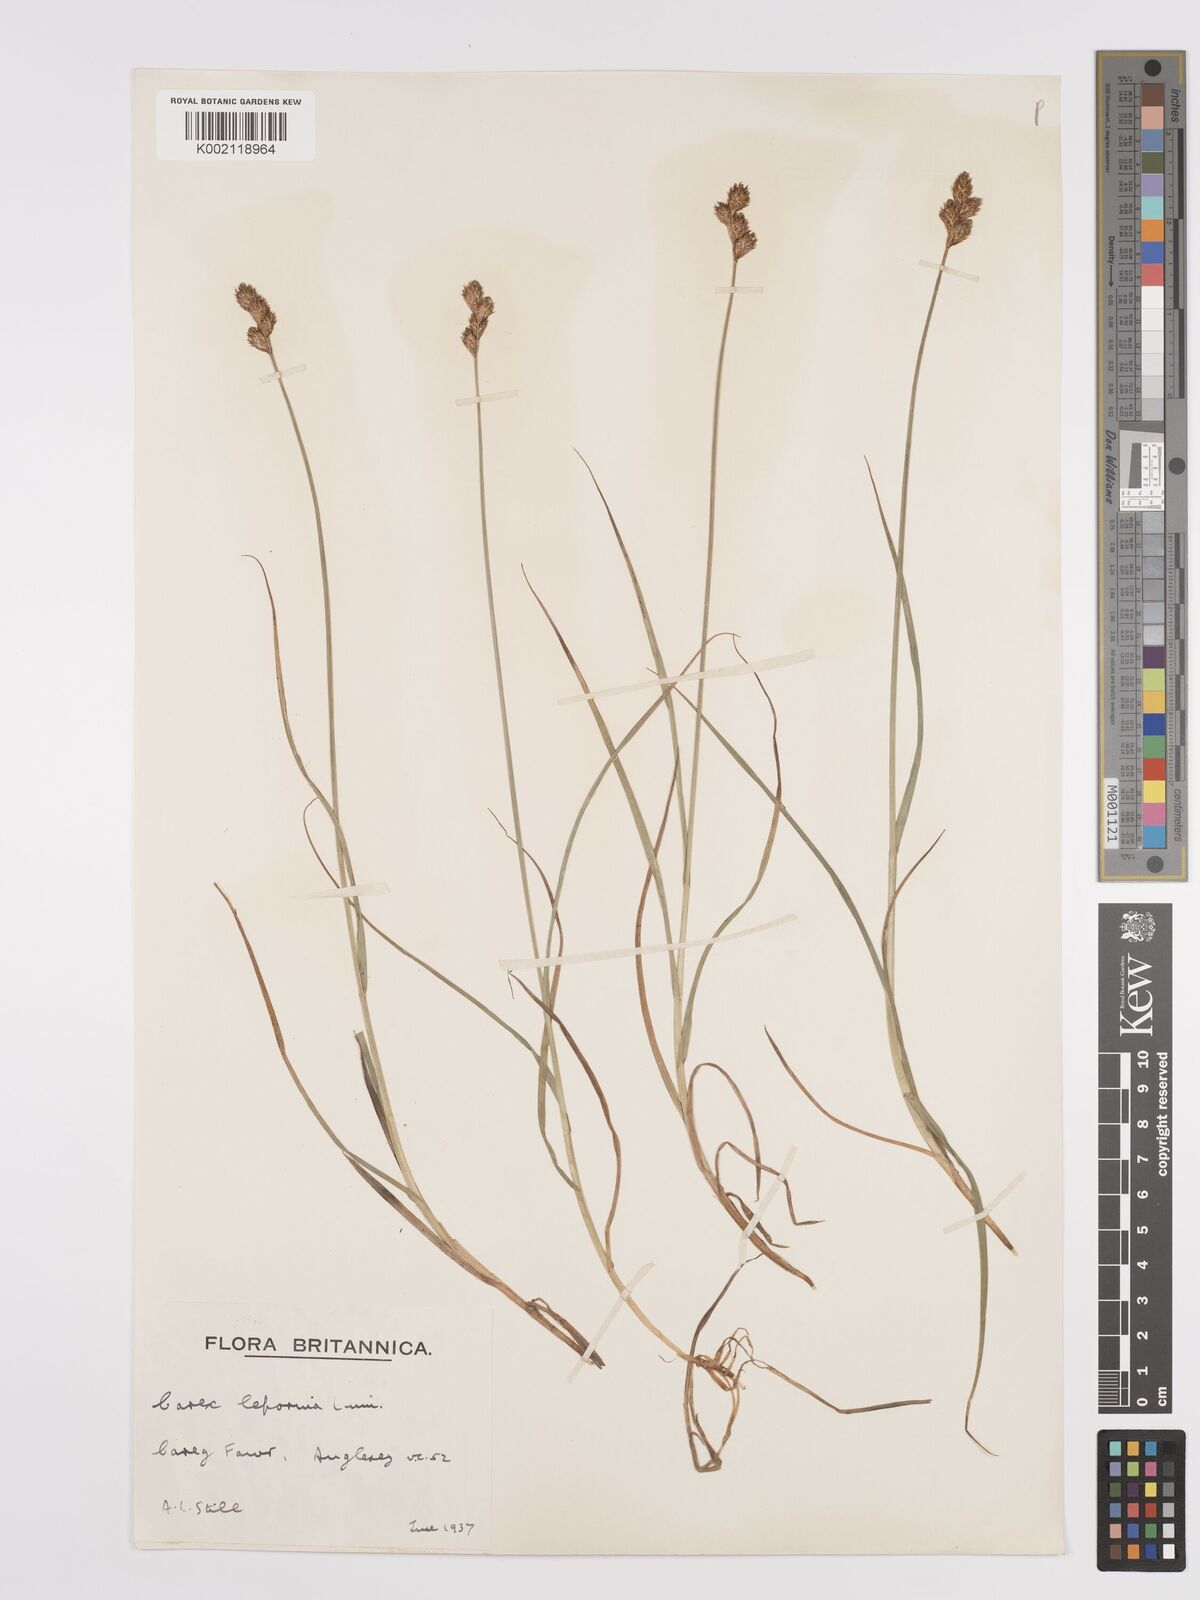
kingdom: Plantae
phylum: Tracheophyta
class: Liliopsida
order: Poales
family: Cyperaceae
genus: Carex
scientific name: Carex leporina
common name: Oval sedge
